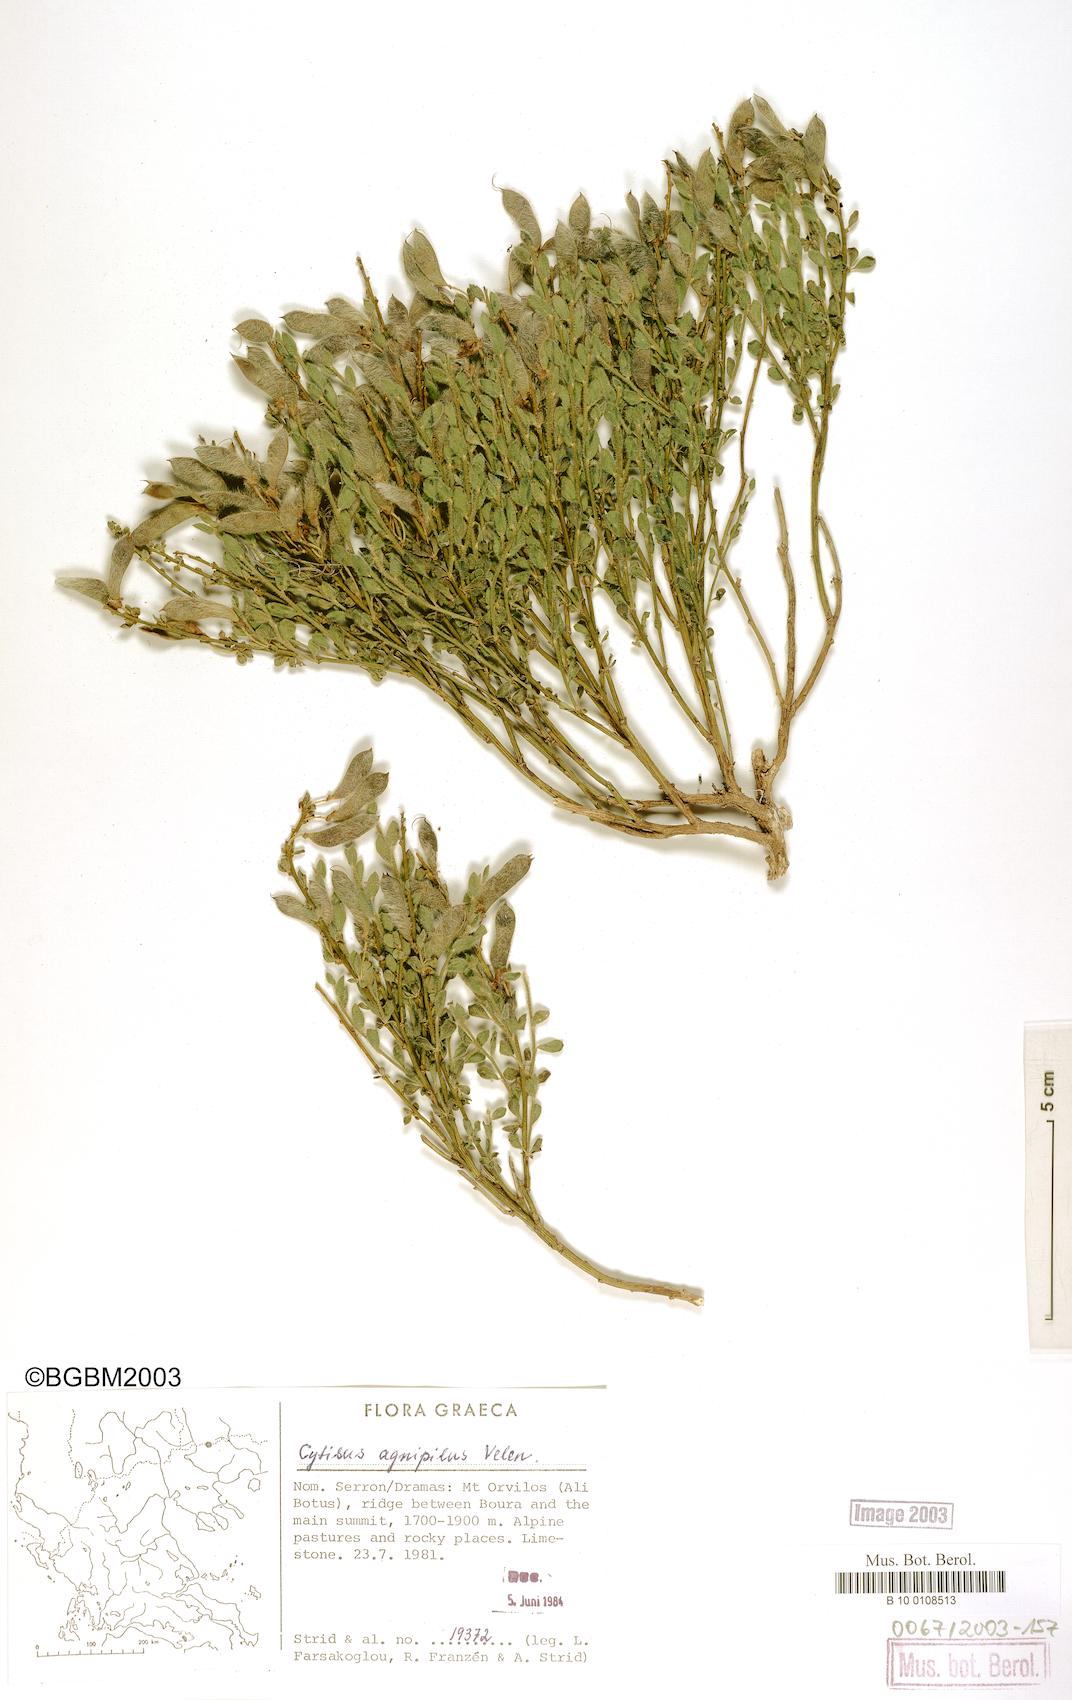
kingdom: Plantae
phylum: Tracheophyta
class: Magnoliopsida
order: Fabales
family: Fabaceae
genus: Chamaecytisus
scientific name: Chamaecytisus
